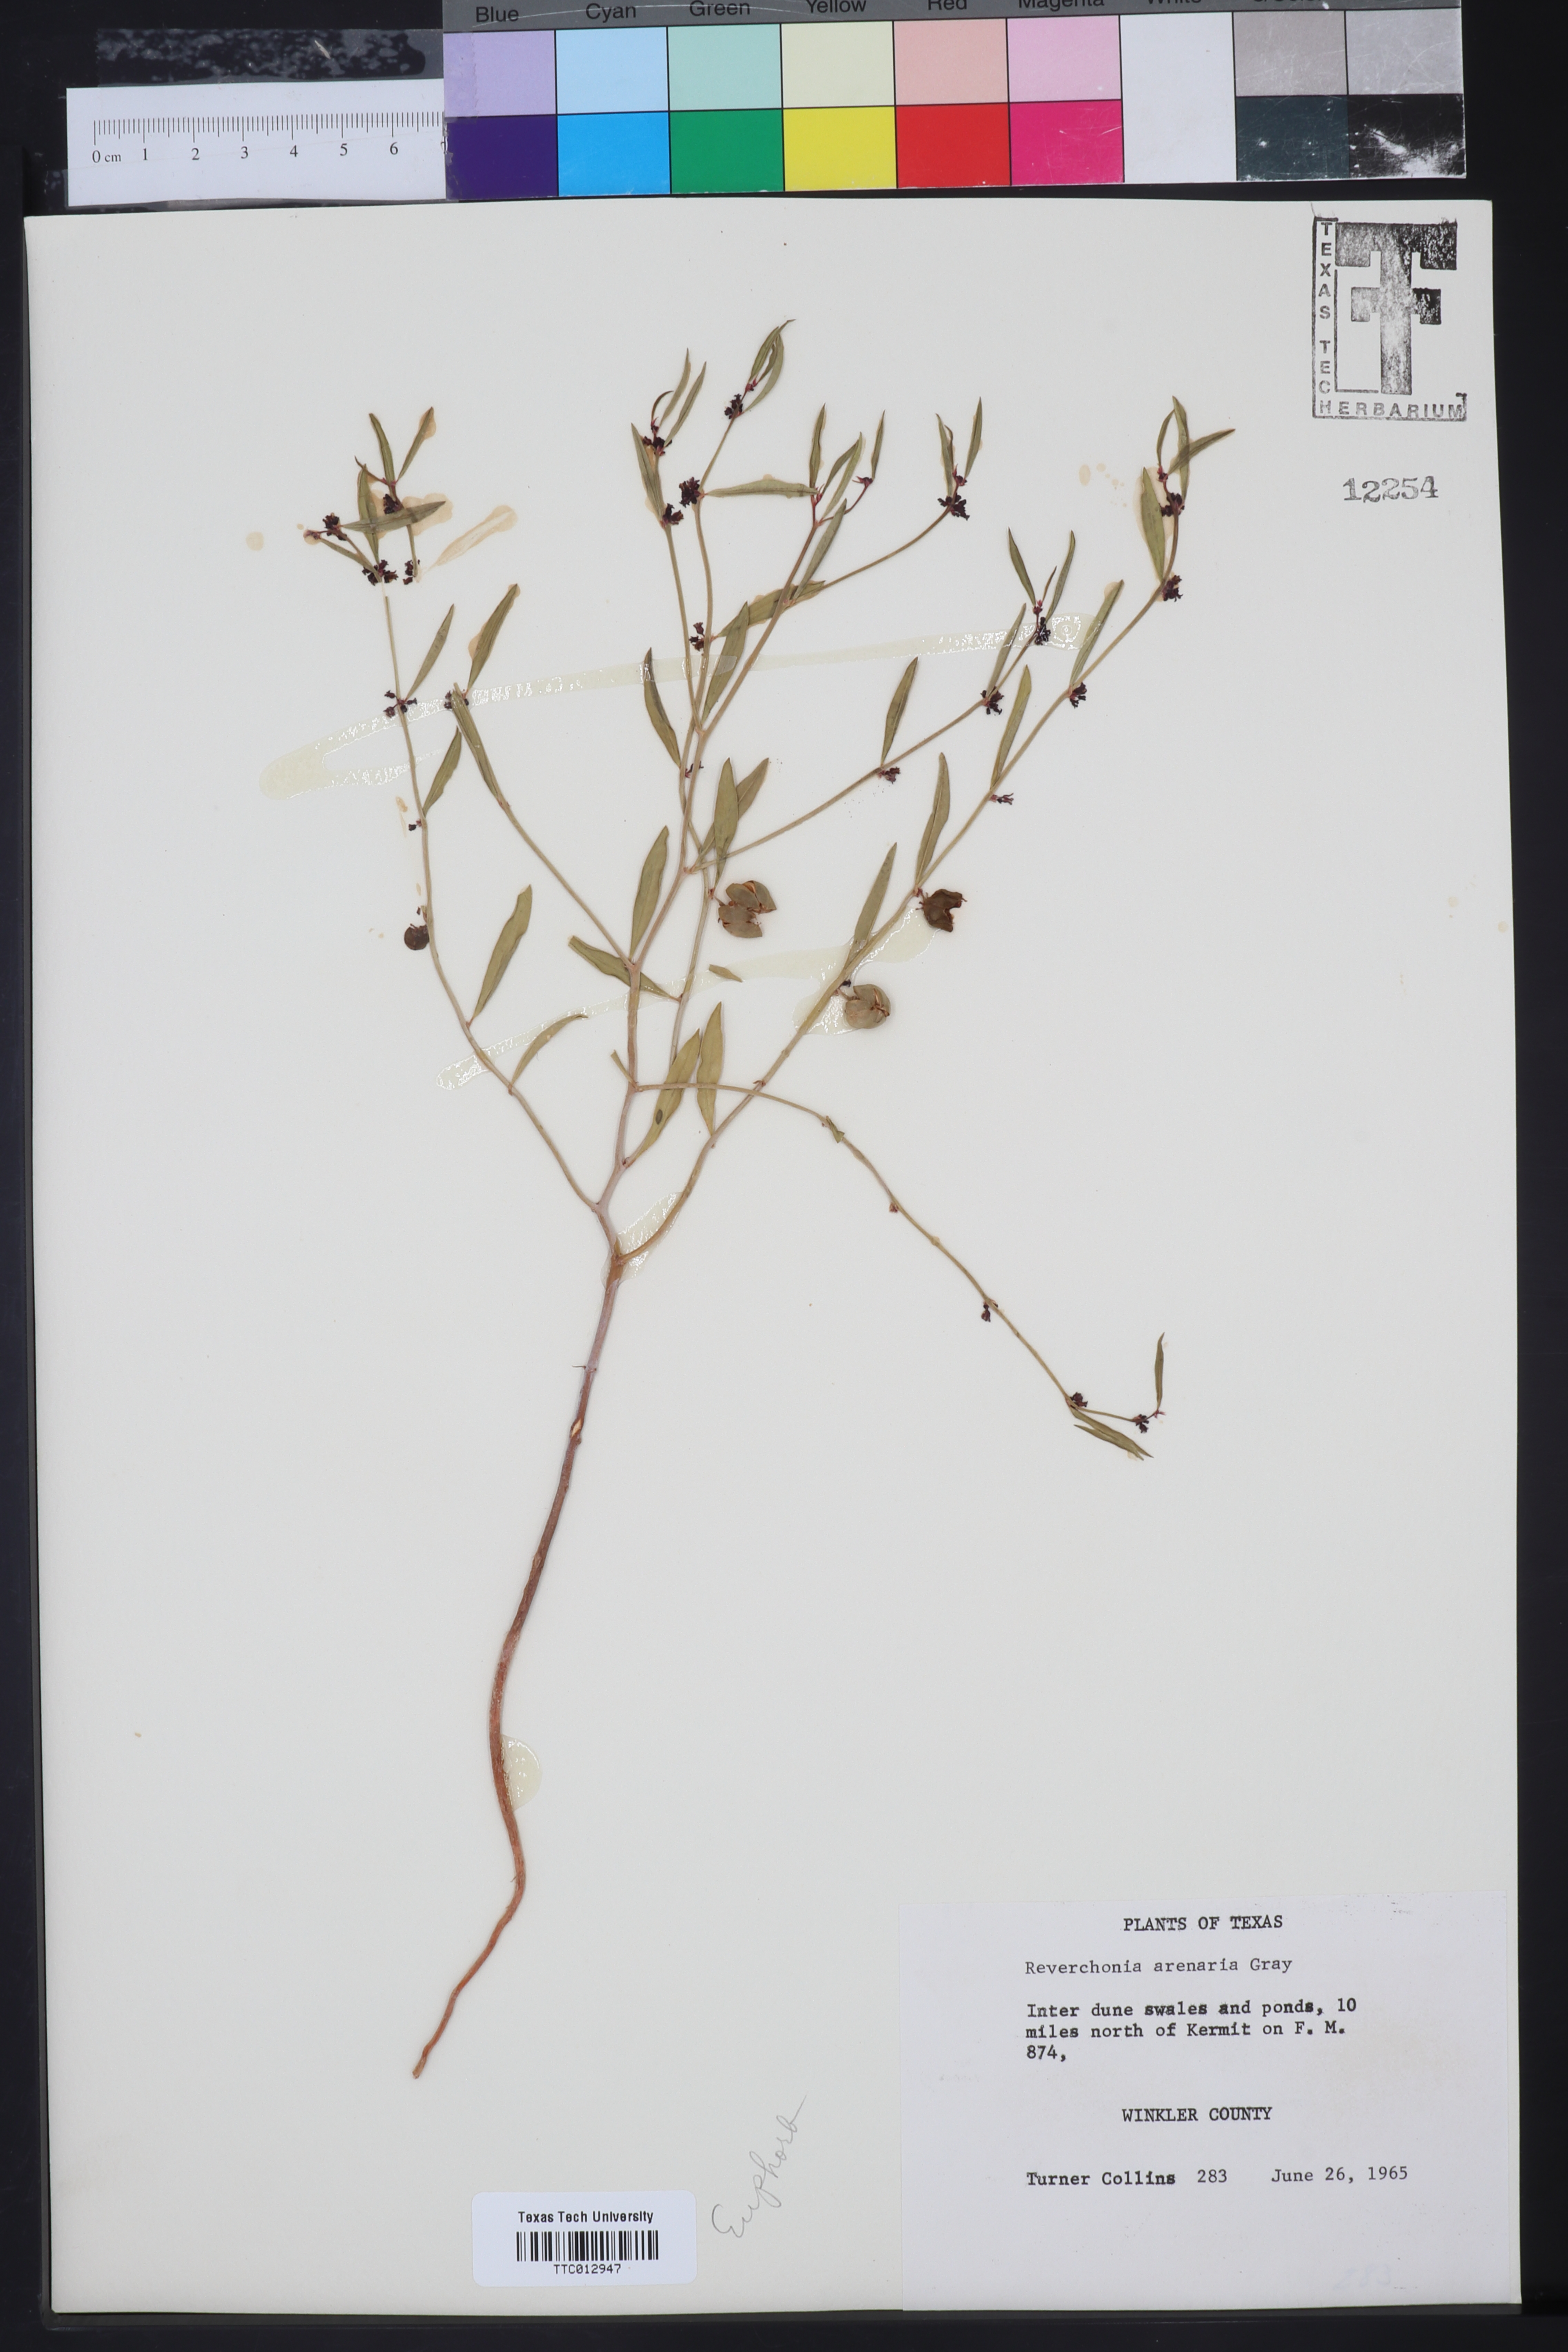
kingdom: Plantae
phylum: Tracheophyta
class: Magnoliopsida
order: Malpighiales
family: Phyllanthaceae
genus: Phyllanthus
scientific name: Phyllanthus warnockii
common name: Sand reverchonia
